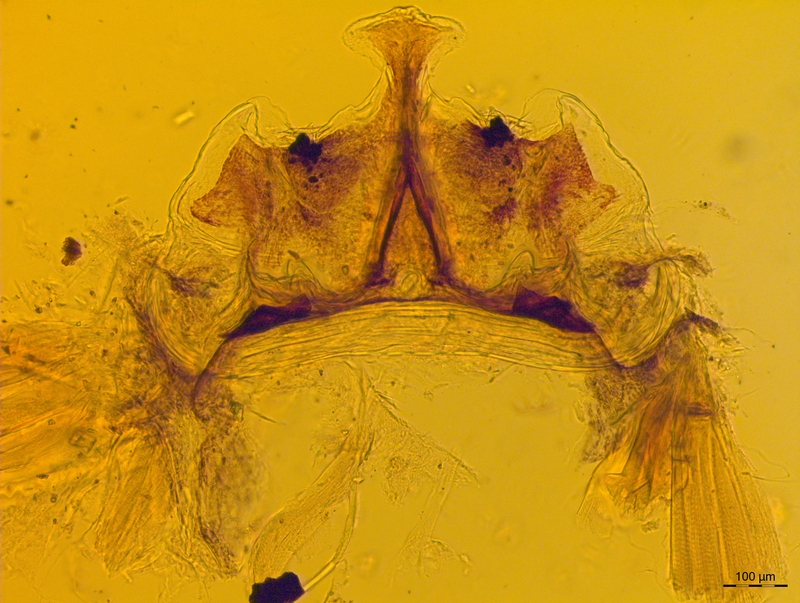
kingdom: Animalia
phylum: Arthropoda
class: Diplopoda
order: Chordeumatida
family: Craspedosomatidae
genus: Craspedosoma
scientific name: Craspedosoma slavum
